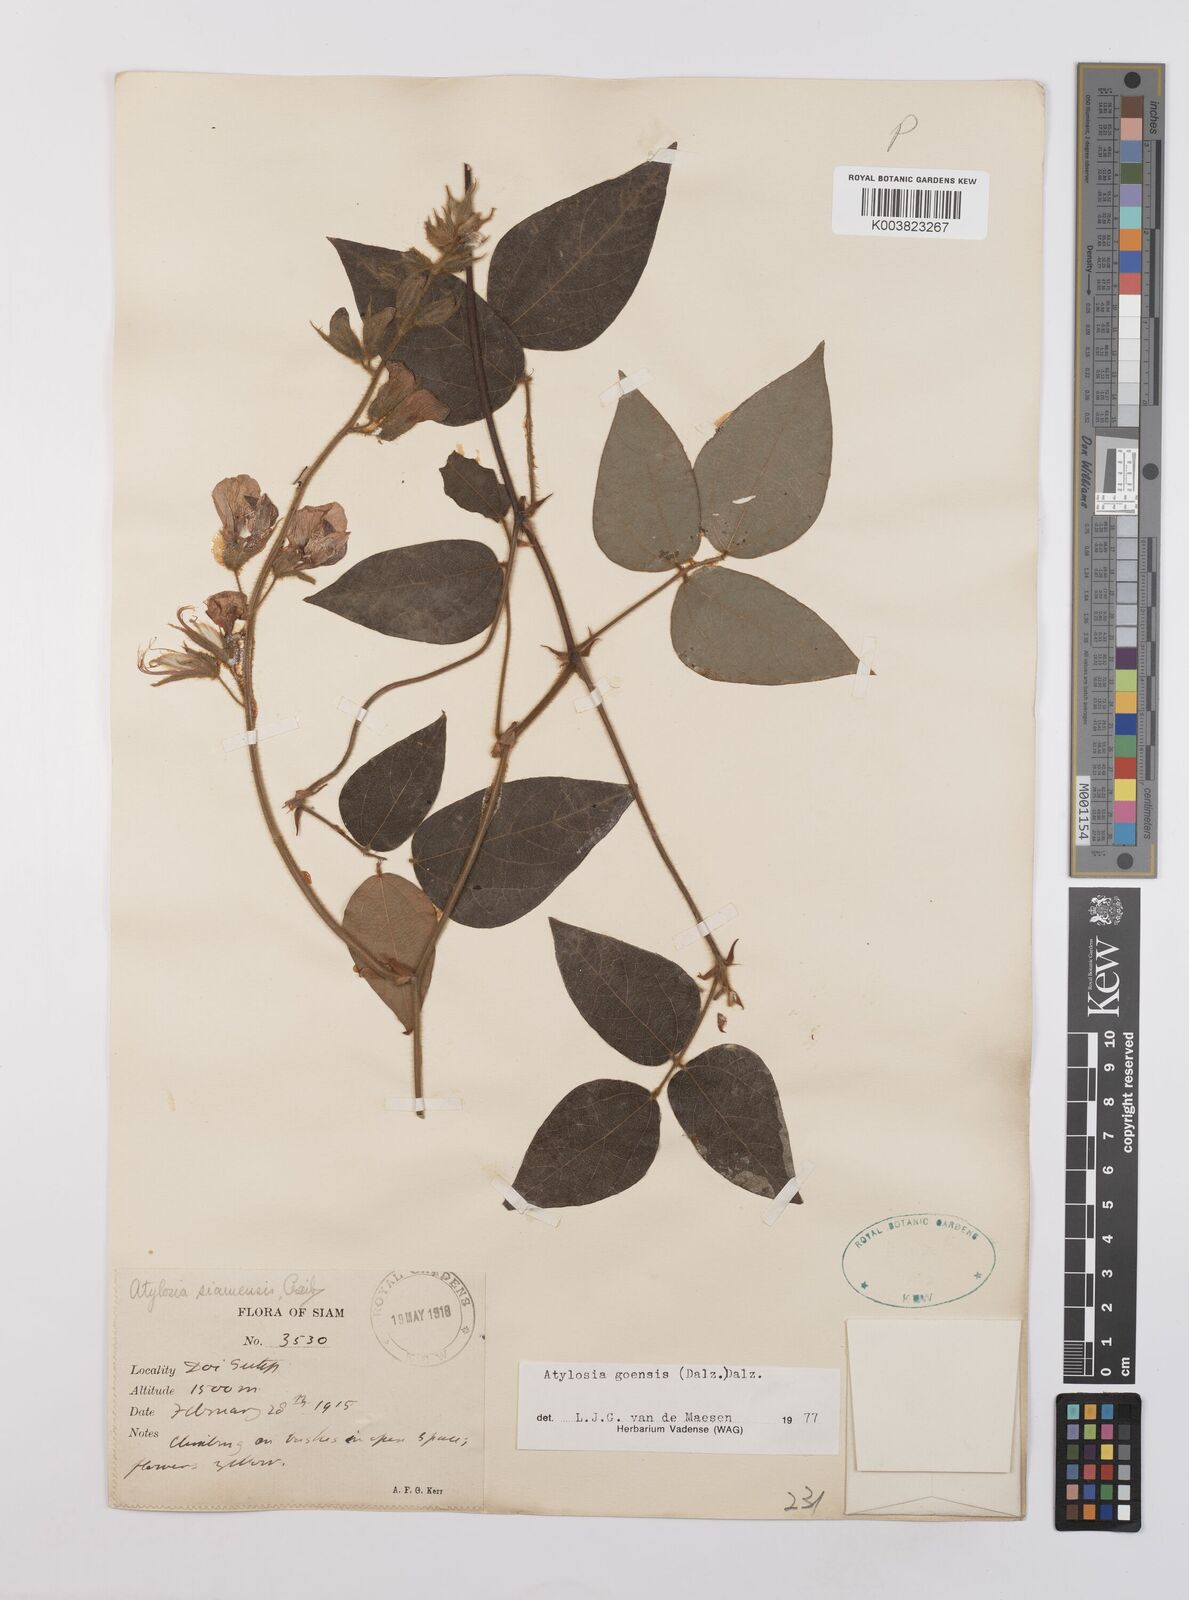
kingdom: Plantae
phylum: Tracheophyta
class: Magnoliopsida
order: Fabales
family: Fabaceae
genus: Cajanus
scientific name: Cajanus goensis
